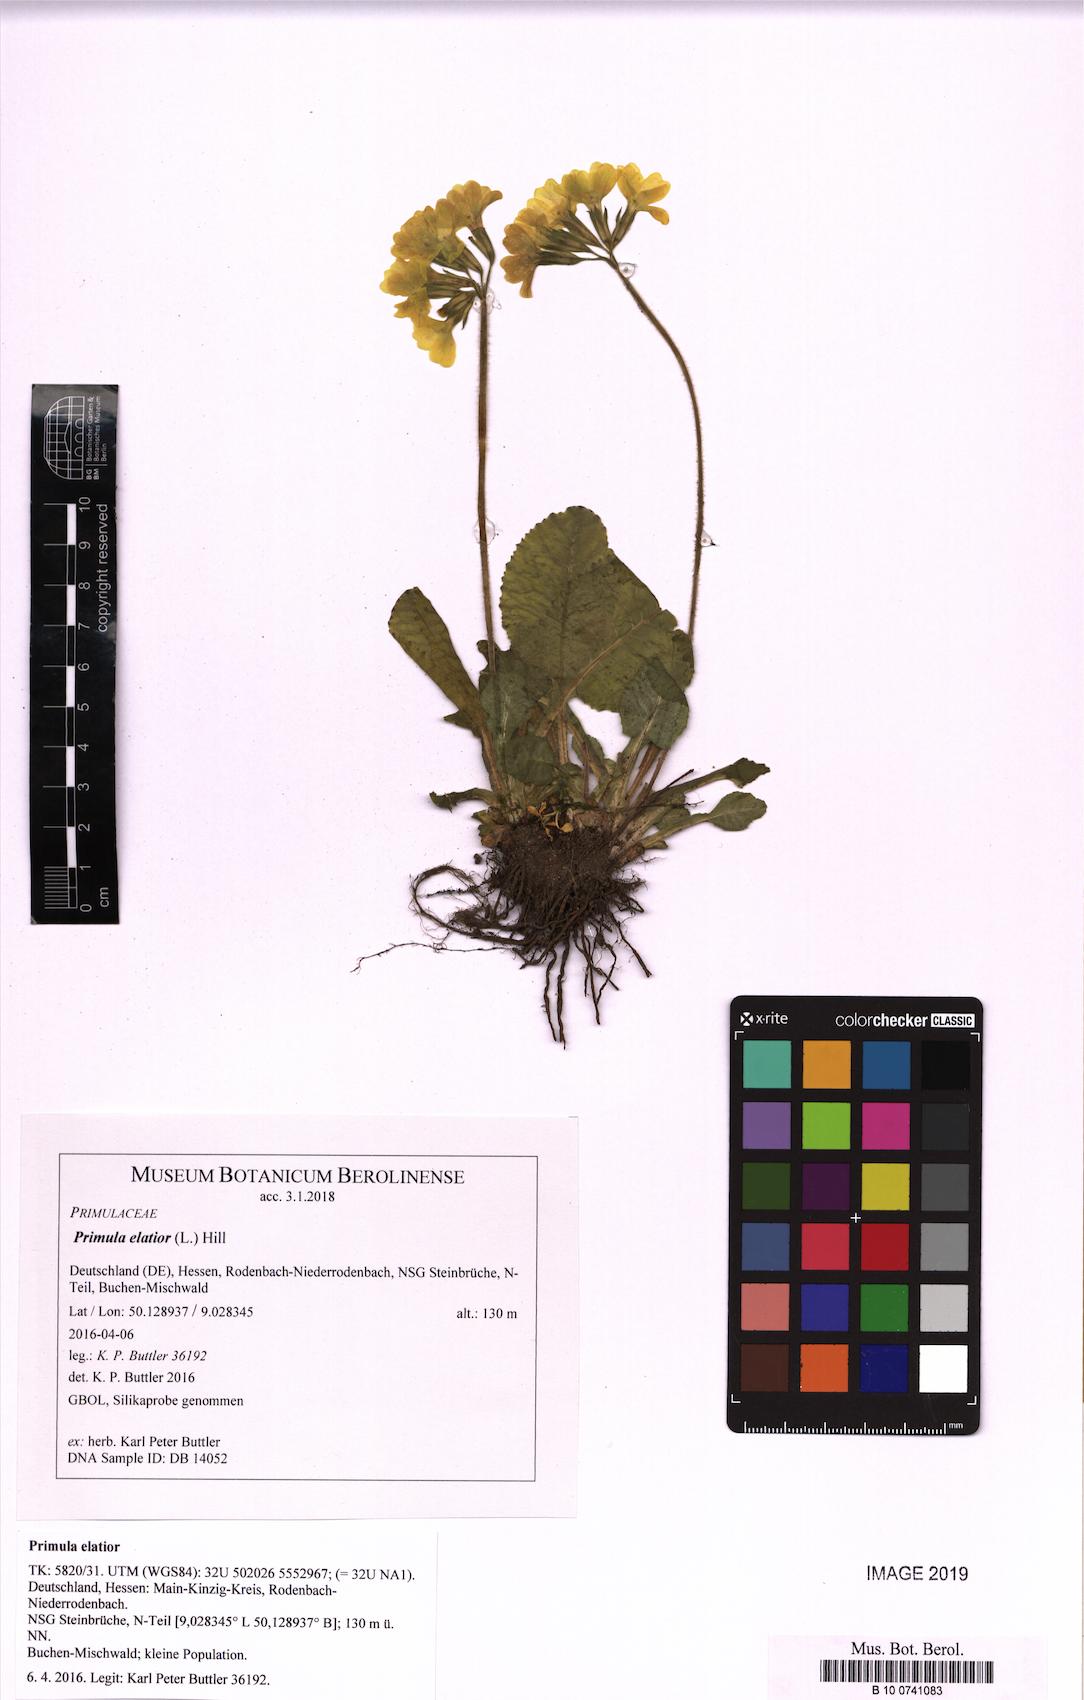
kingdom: Plantae
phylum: Tracheophyta
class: Magnoliopsida
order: Ericales
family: Primulaceae
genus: Primula
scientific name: Primula elatior
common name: Oxlip
